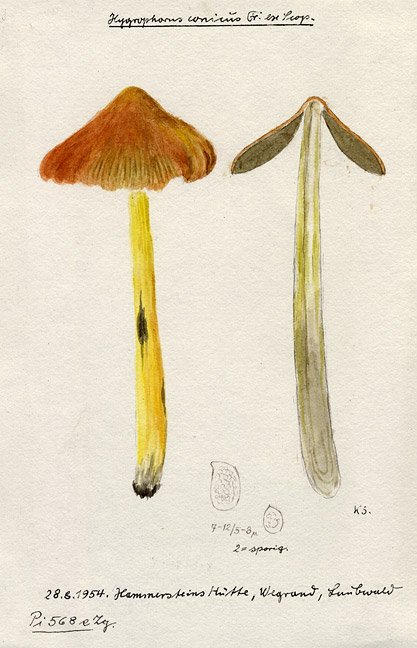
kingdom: Fungi
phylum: Basidiomycota
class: Agaricomycetes
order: Agaricales
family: Hygrophoraceae
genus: Hygrocybe
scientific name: Hygrocybe conica
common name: Blackening wax-cap
